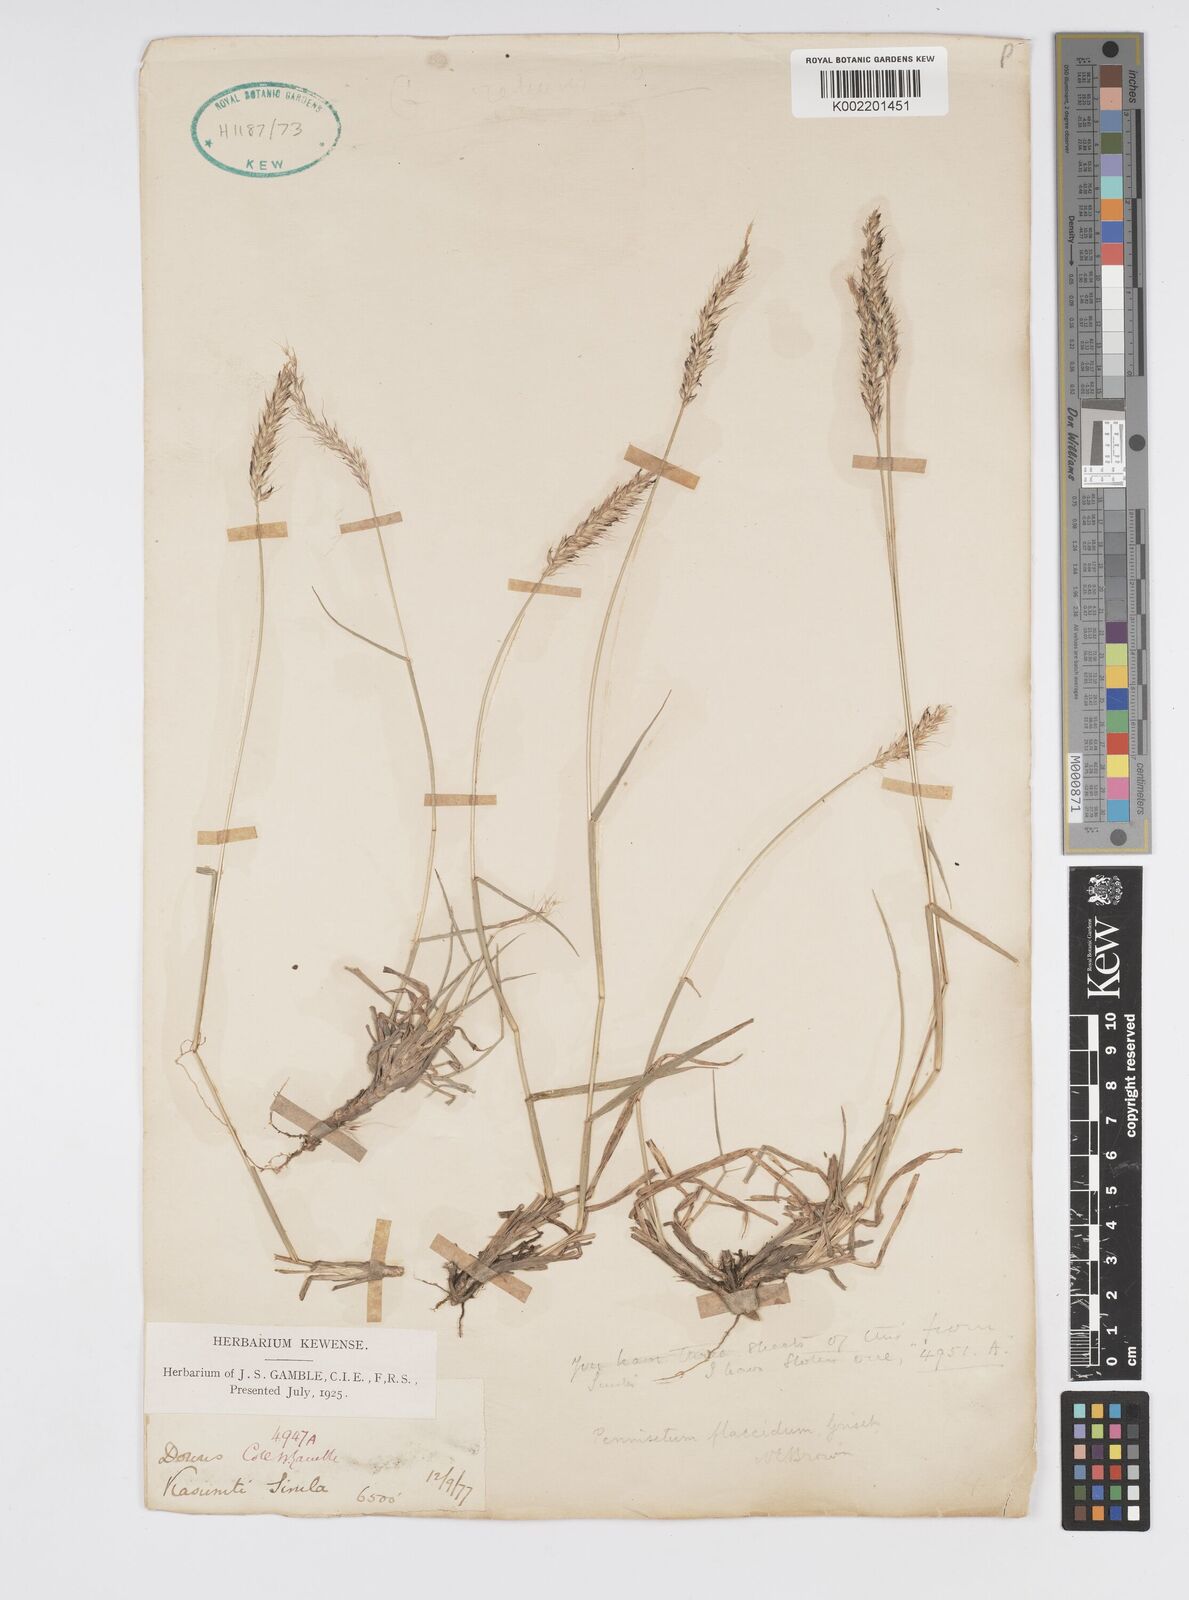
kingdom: Plantae
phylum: Tracheophyta
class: Liliopsida
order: Poales
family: Poaceae
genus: Cenchrus
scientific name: Cenchrus flaccidus
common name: Flaccid grass
